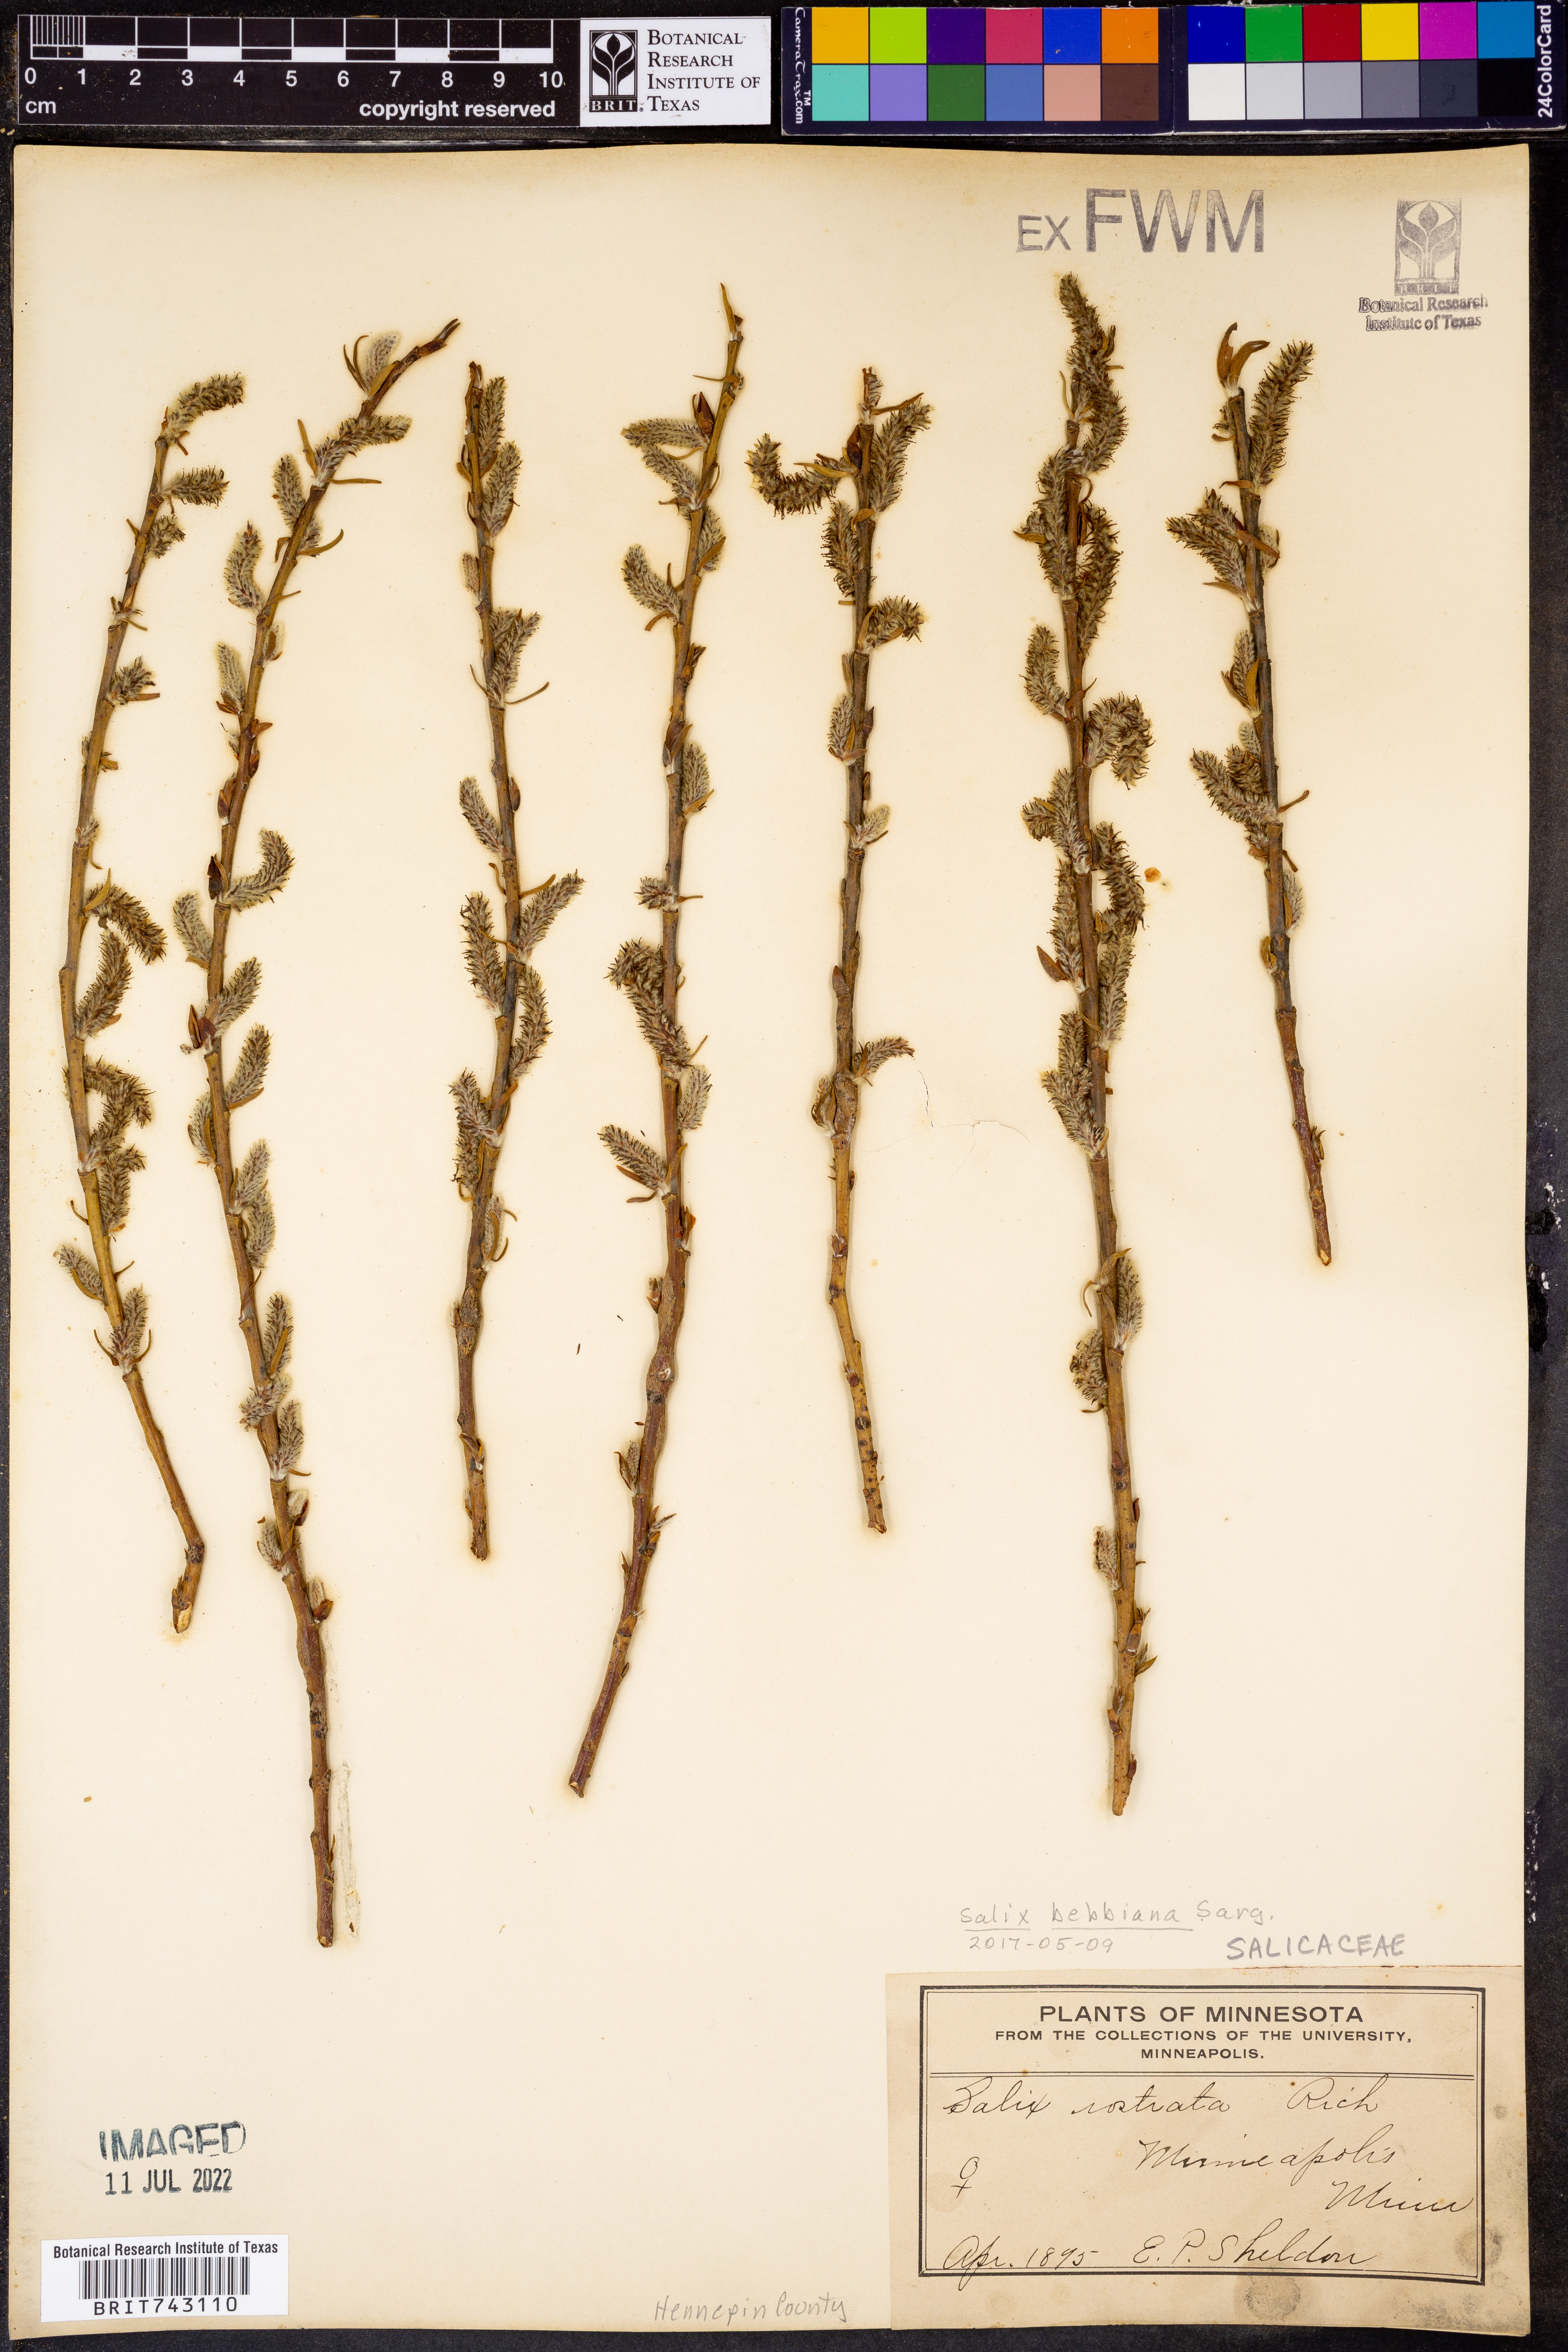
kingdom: Plantae
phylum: Tracheophyta
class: Magnoliopsida
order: Malpighiales
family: Salicaceae
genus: Salix
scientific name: Salix bebbiana
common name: Bebb's willow
